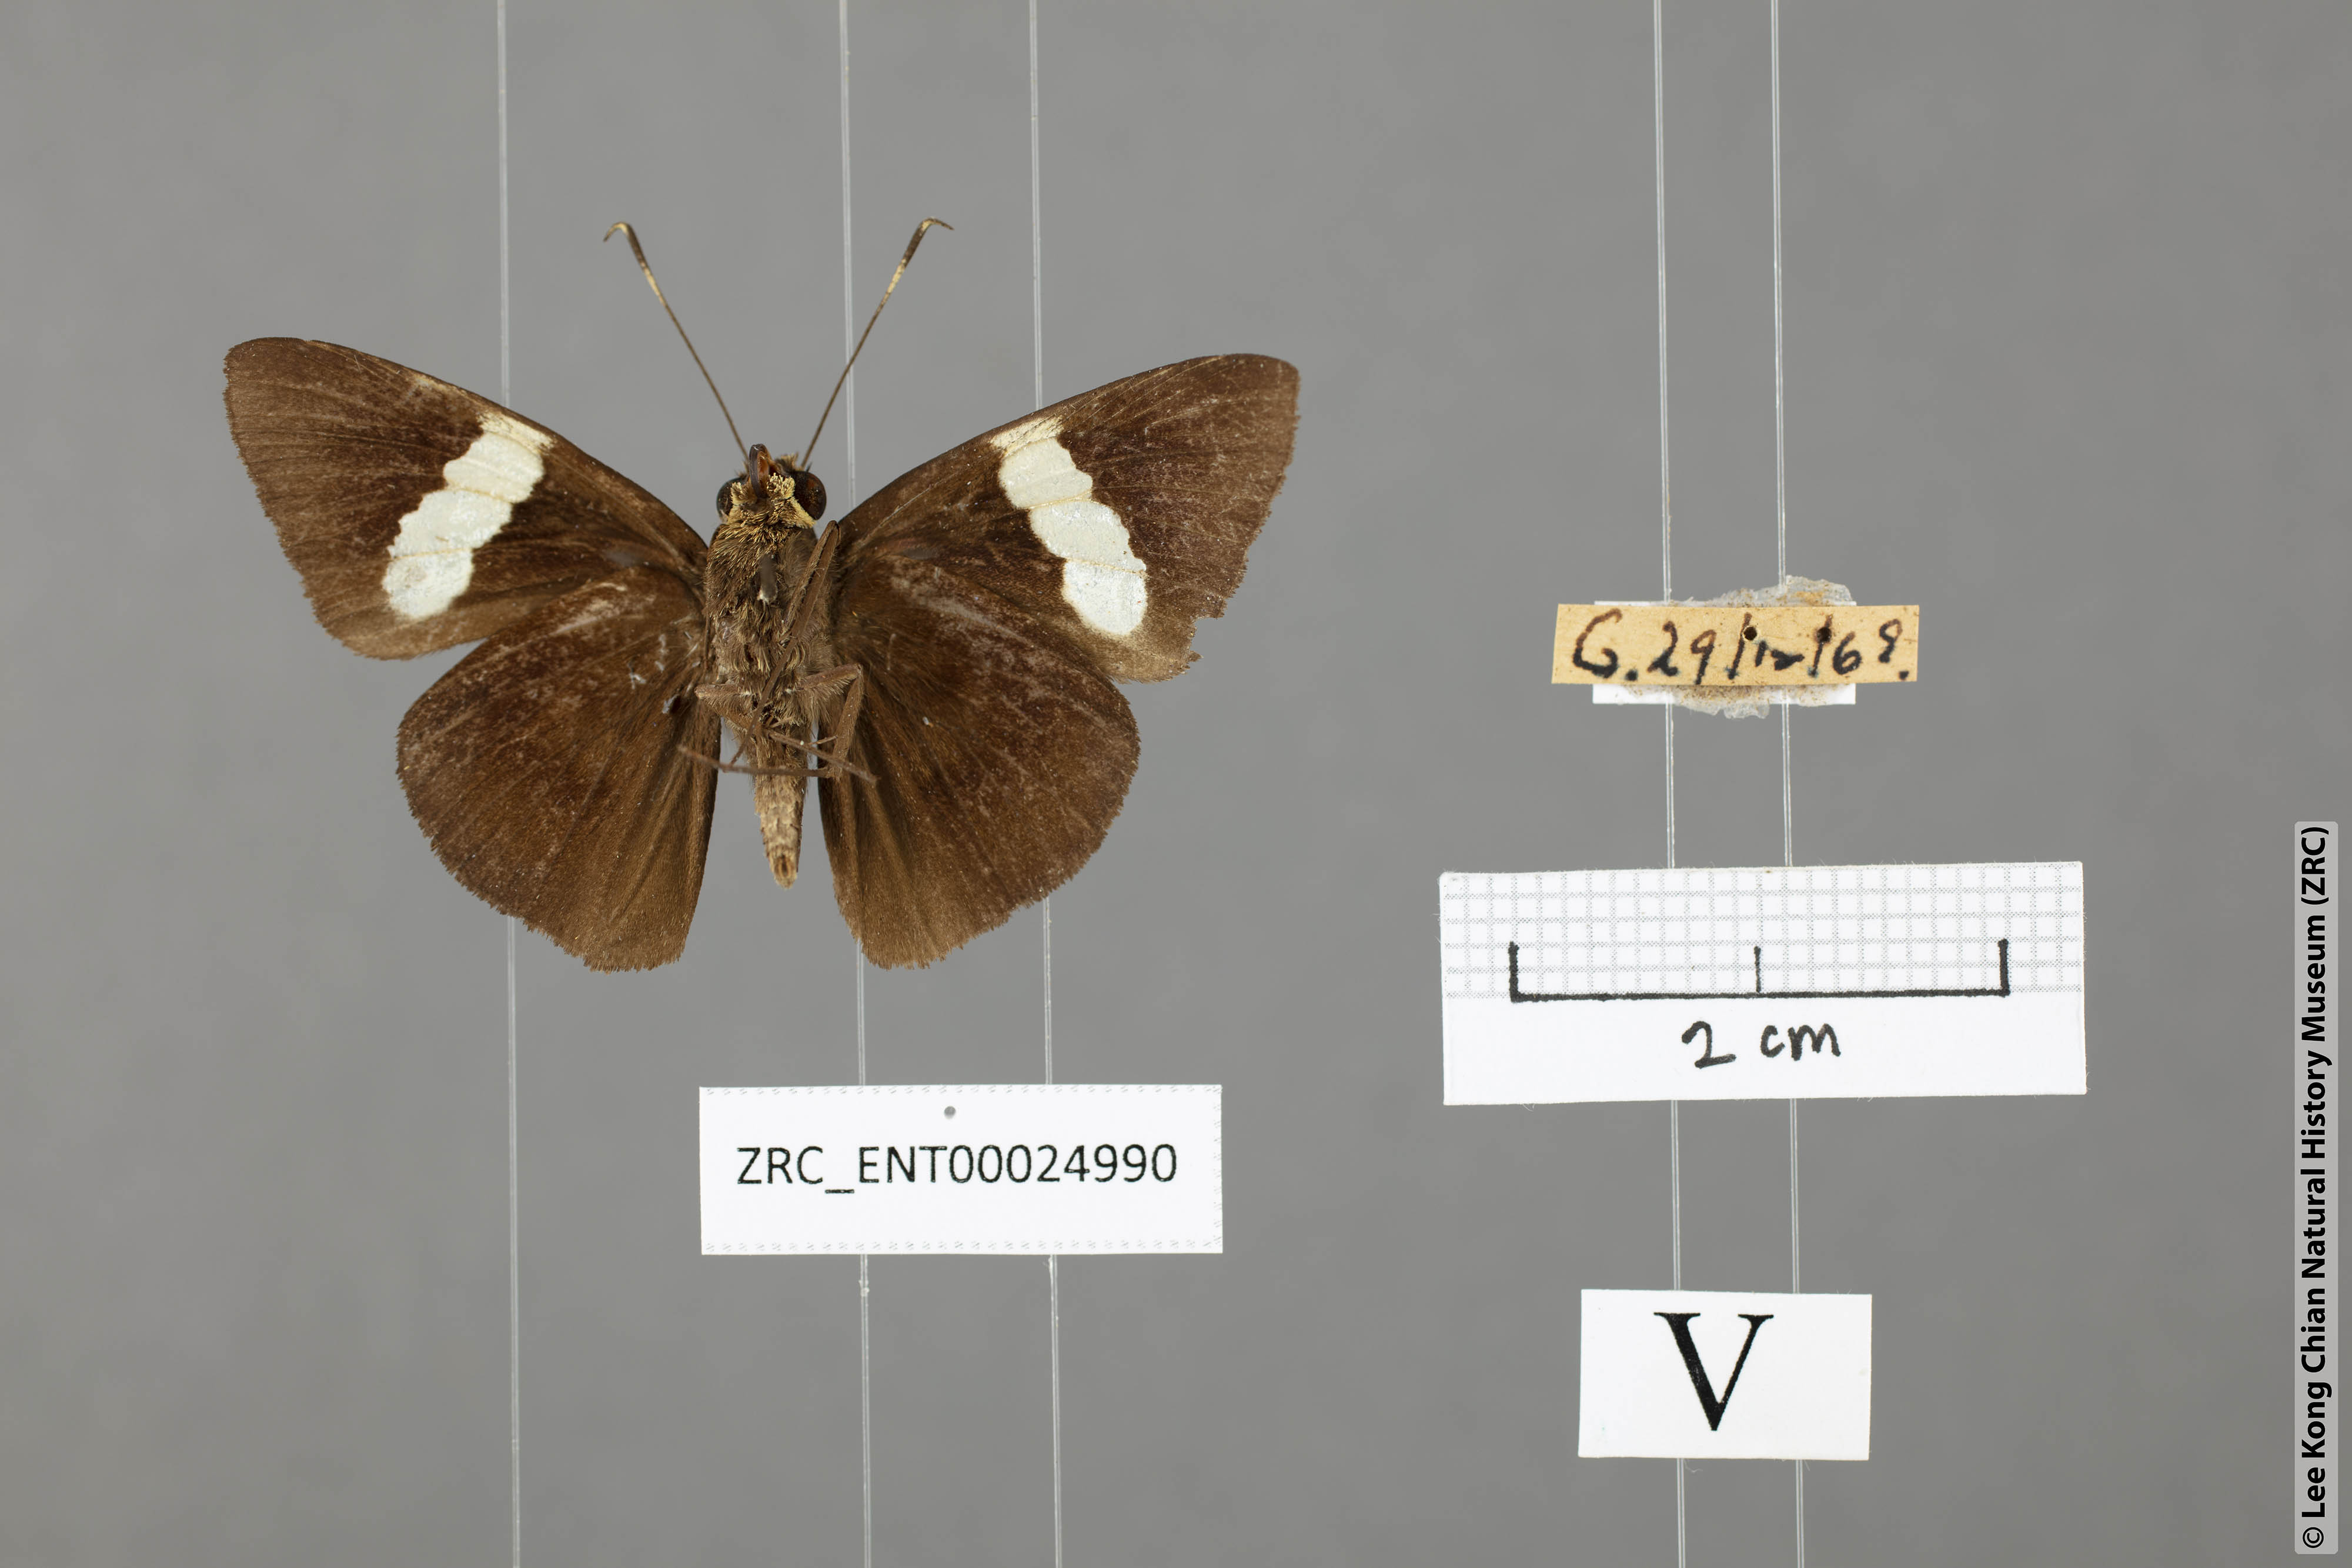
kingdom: Animalia
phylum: Arthropoda
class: Insecta
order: Lepidoptera
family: Hesperiidae
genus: Notocrypta
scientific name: Notocrypta clavata
